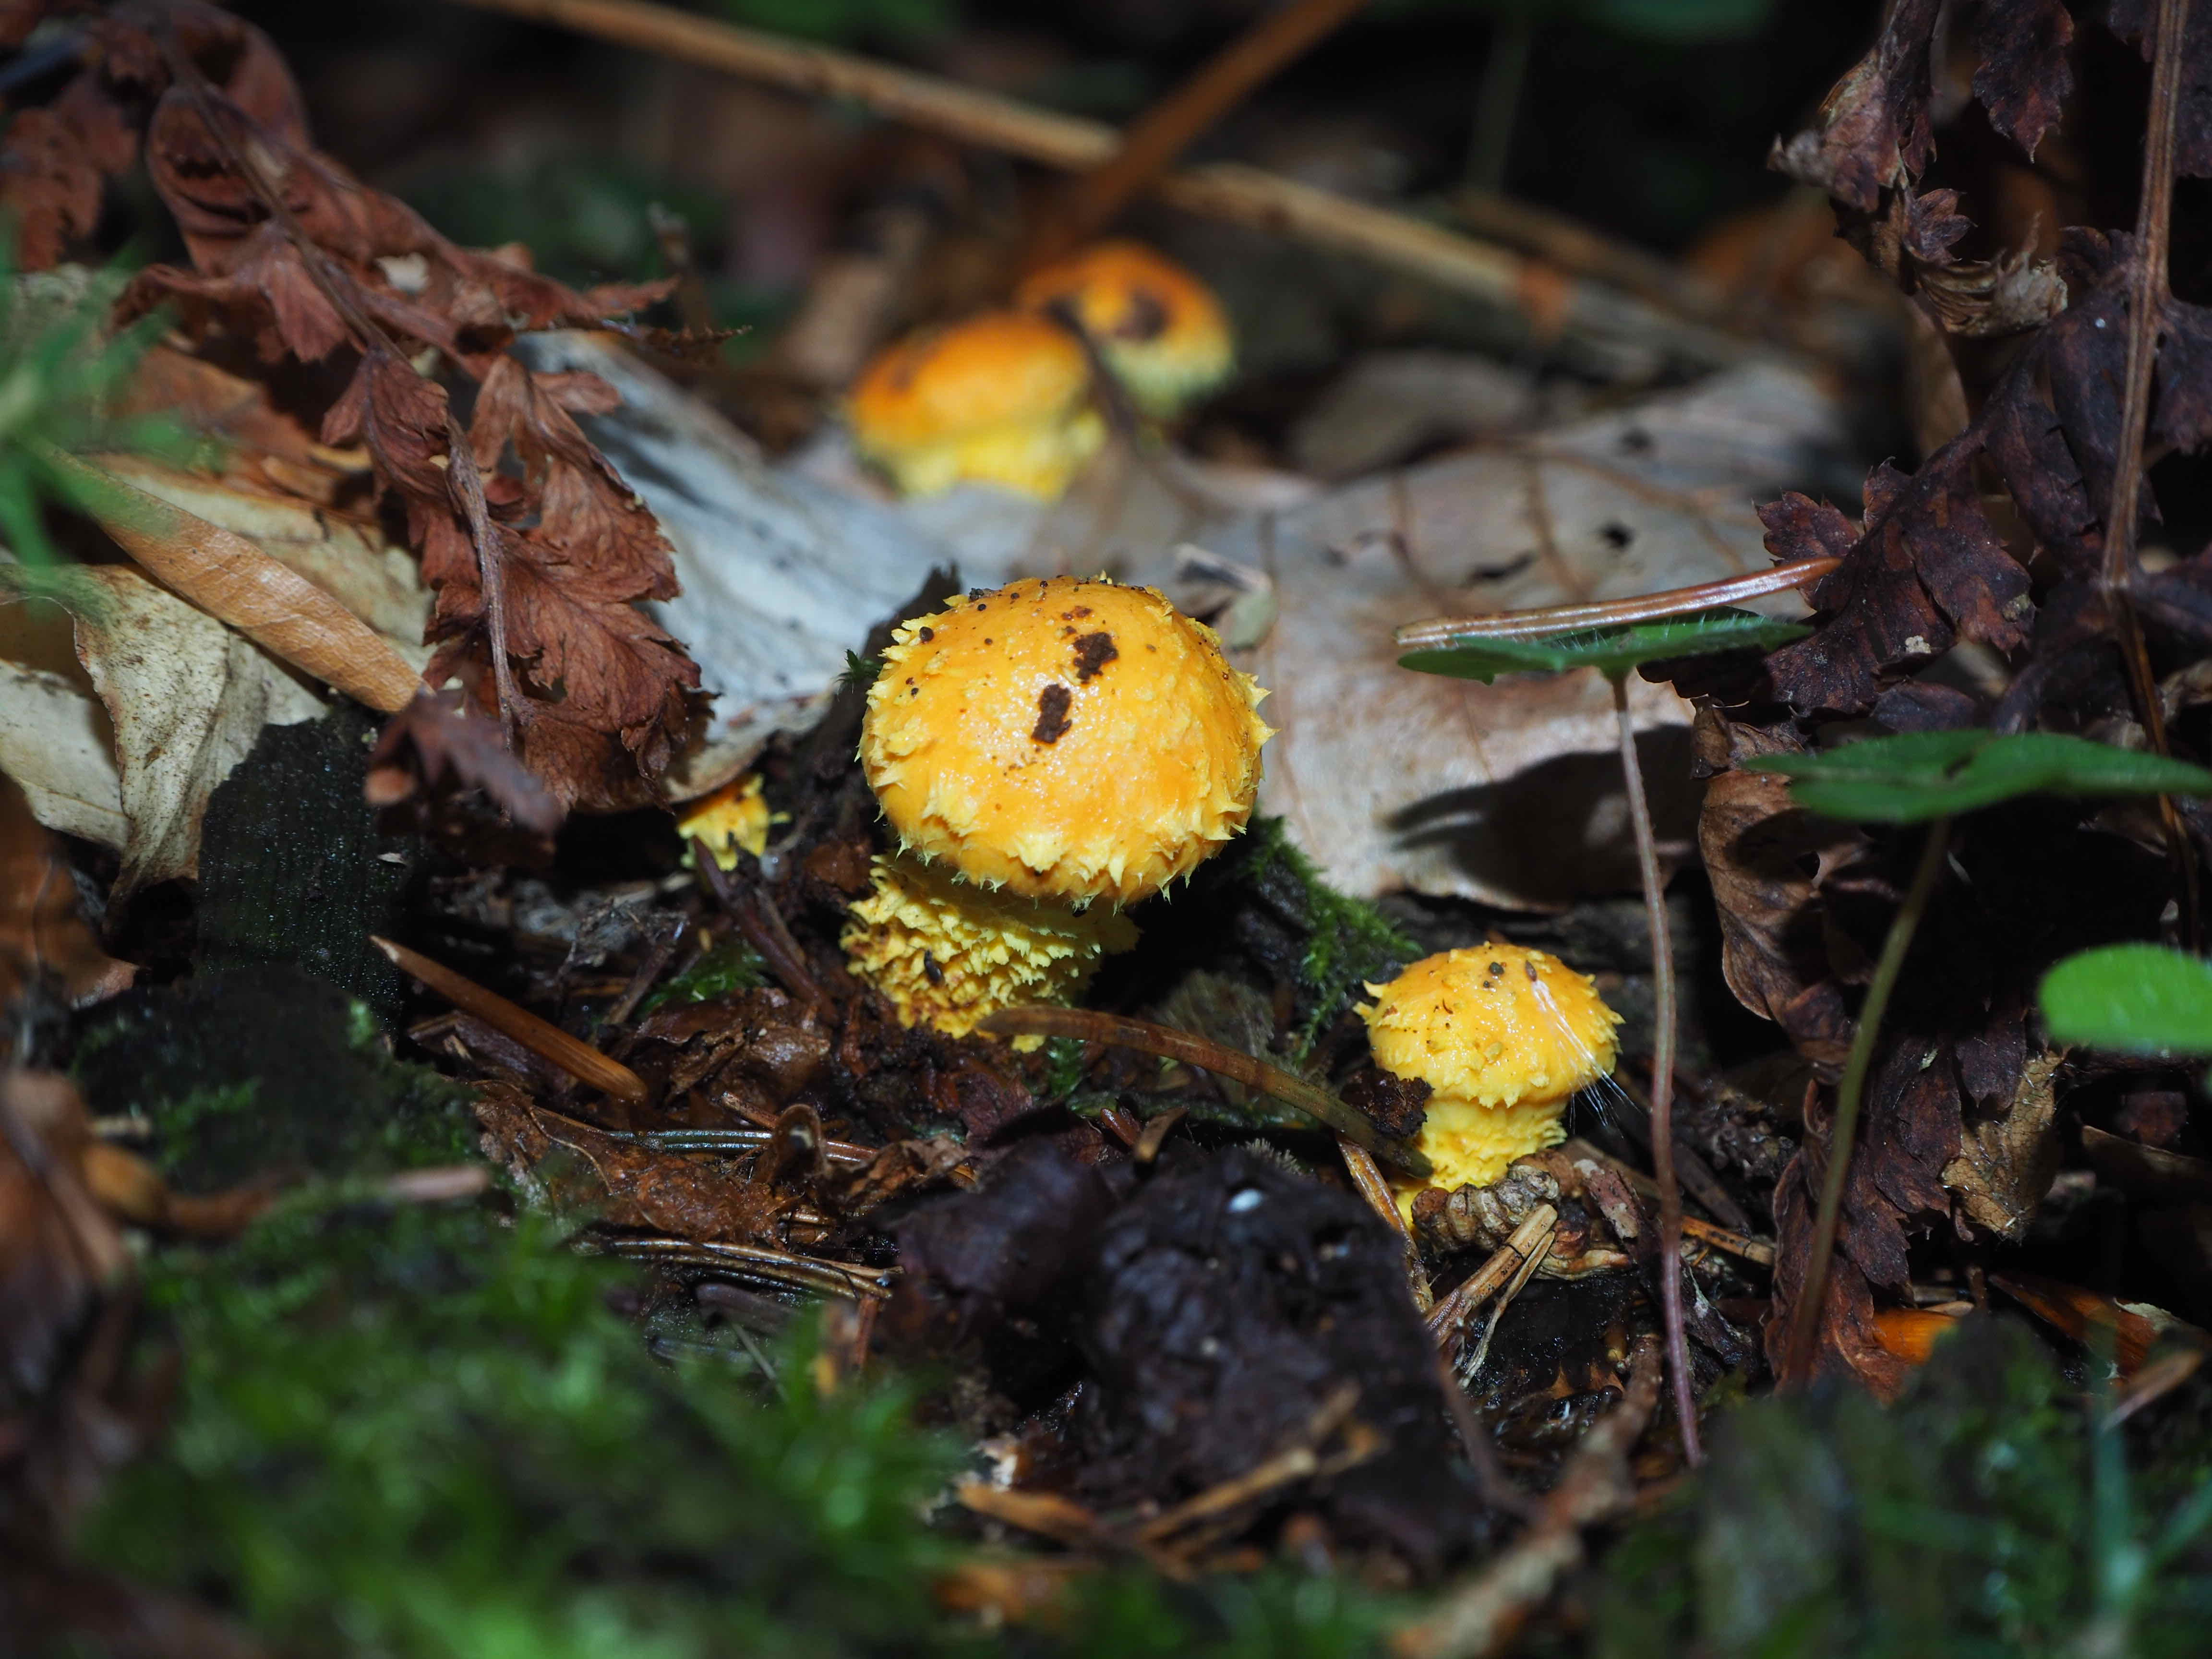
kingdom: Fungi
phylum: Basidiomycota
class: Agaricomycetes
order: Agaricales
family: Strophariaceae
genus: Pholiota
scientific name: Pholiota flammans
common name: flamme-skælhat
